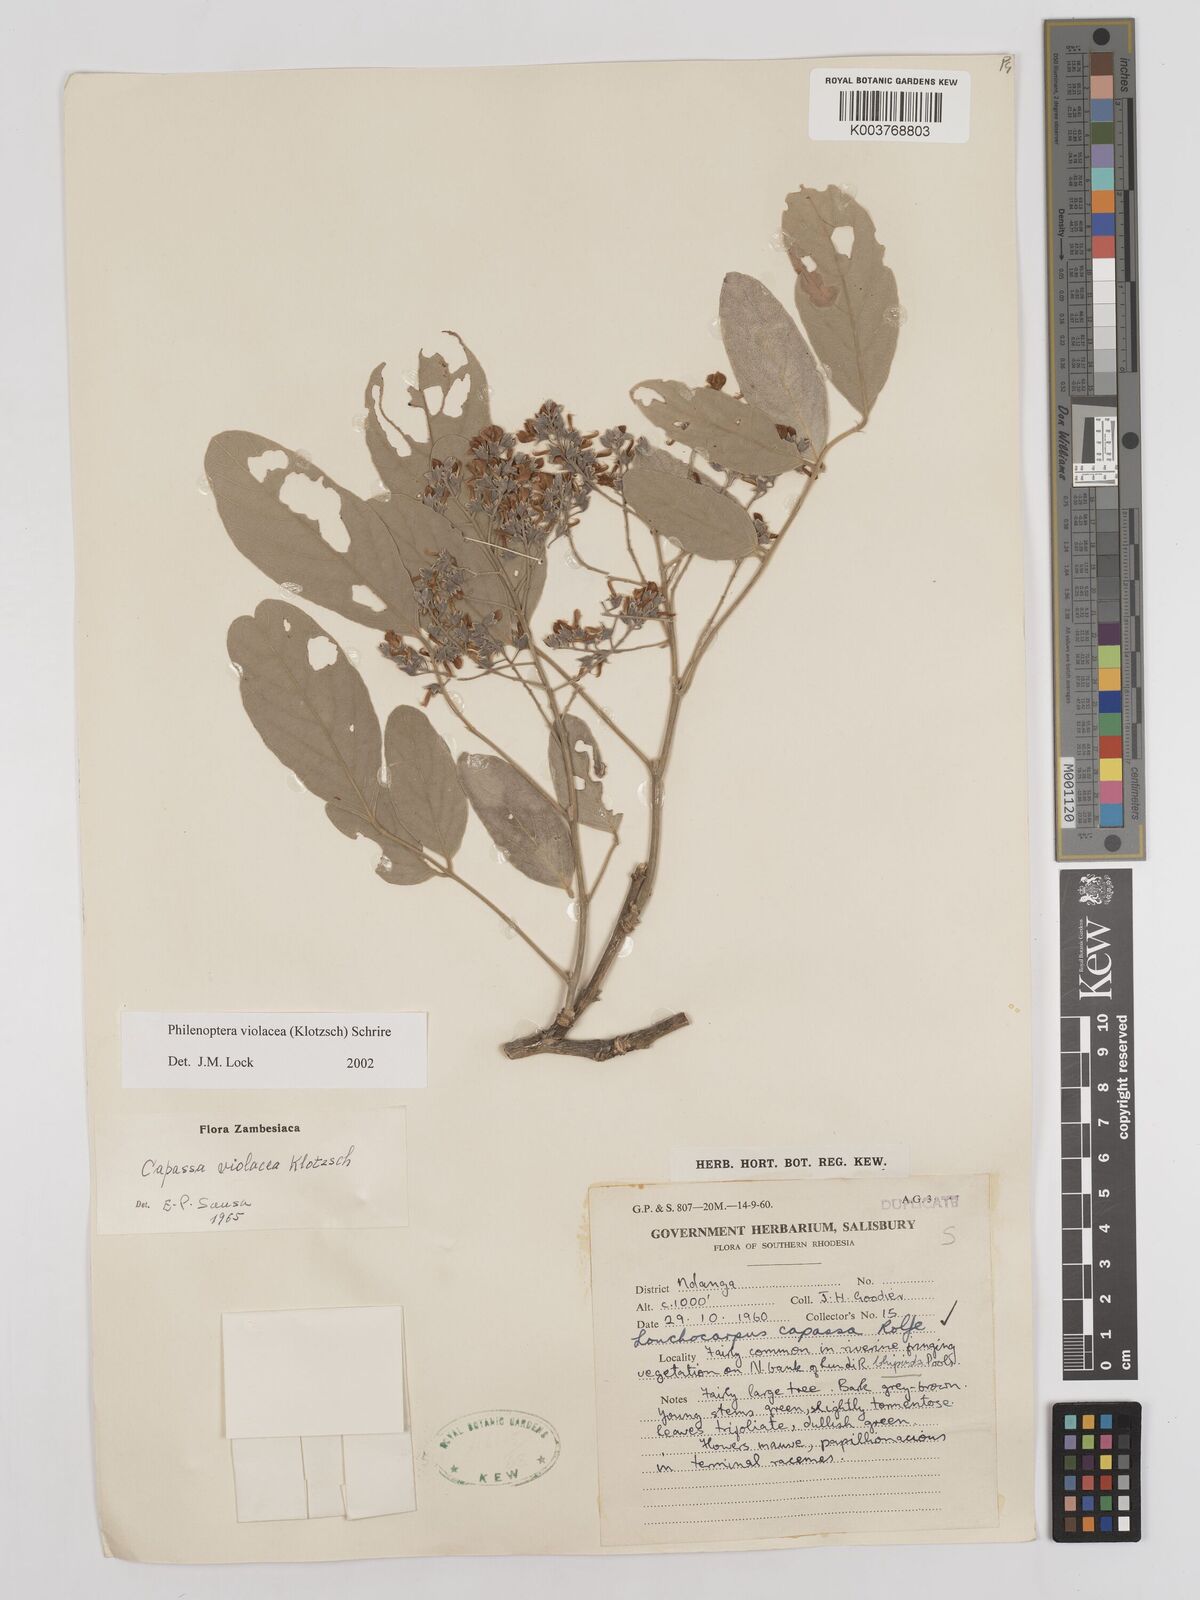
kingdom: Plantae
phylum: Tracheophyta
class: Magnoliopsida
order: Fabales
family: Fabaceae
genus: Philenoptera
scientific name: Philenoptera violacea
